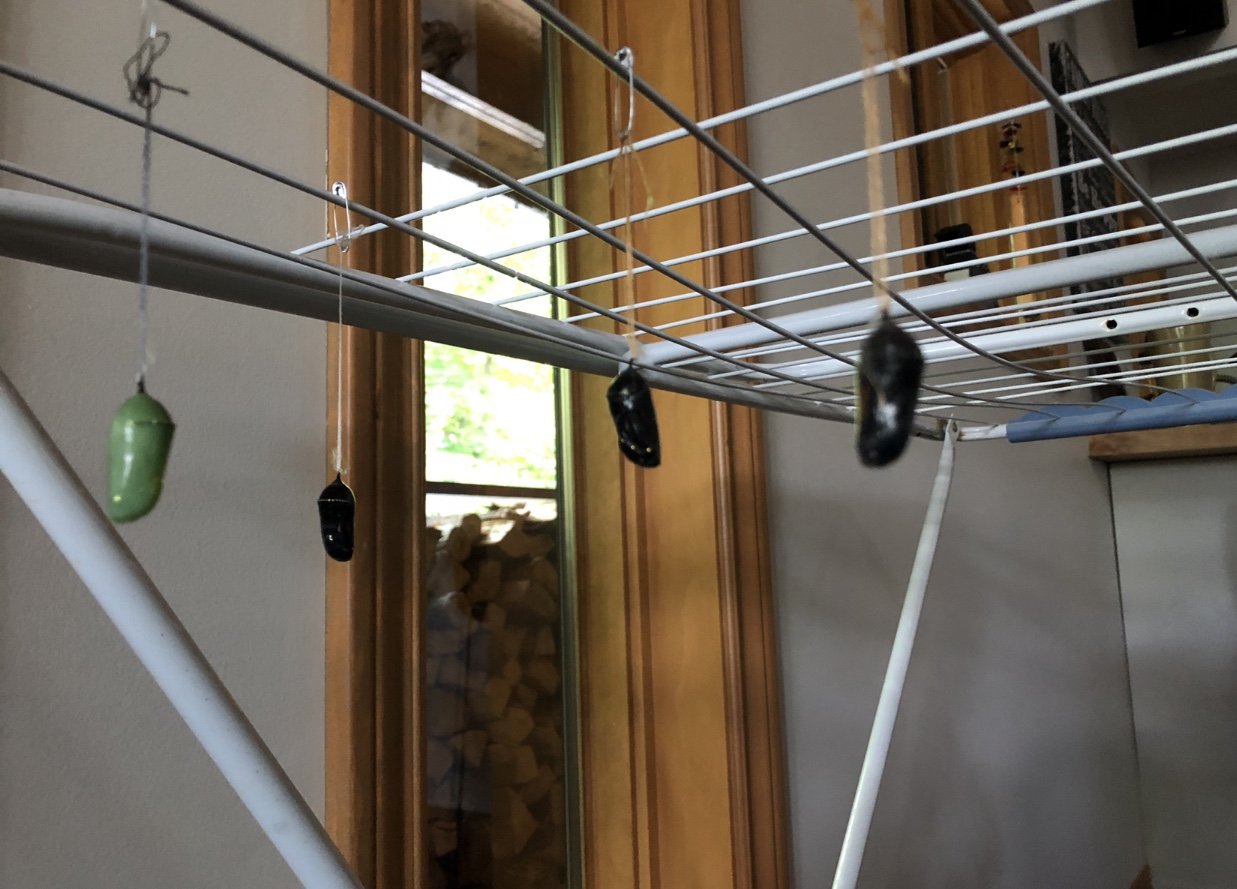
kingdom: Animalia
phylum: Arthropoda
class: Insecta
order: Lepidoptera
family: Nymphalidae
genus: Danaus
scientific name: Danaus plexippus
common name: Monarch
